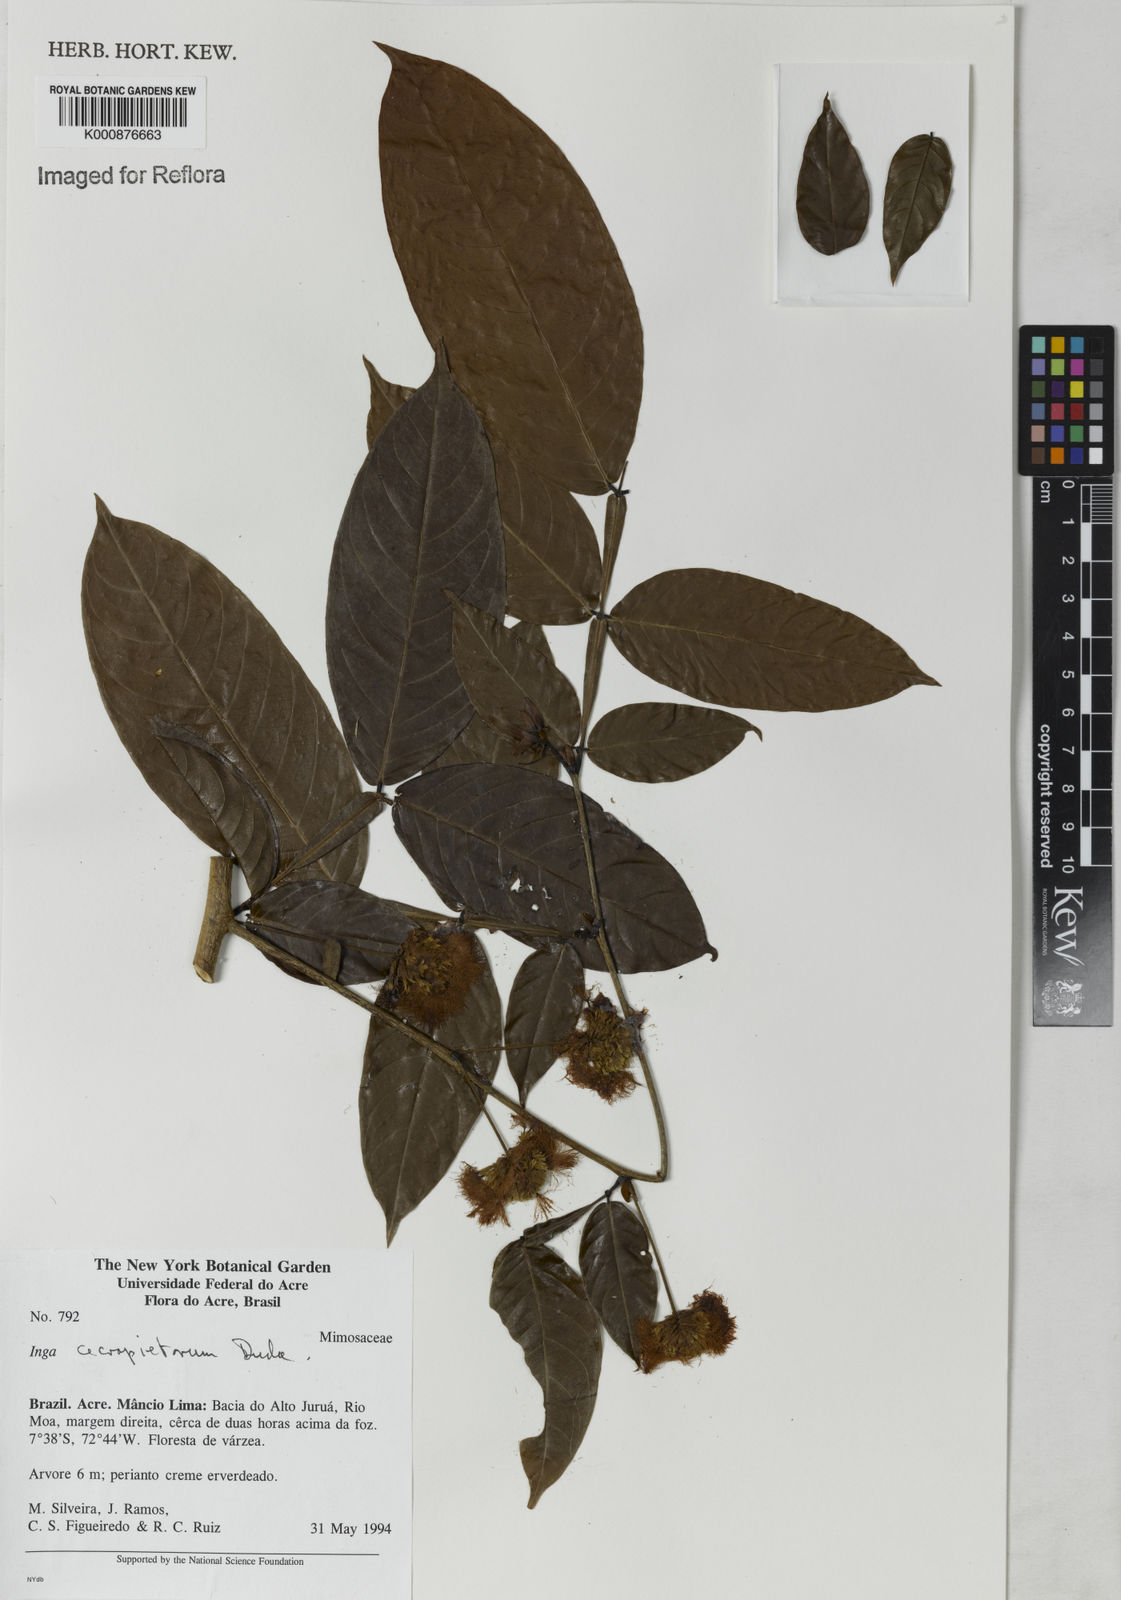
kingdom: Plantae
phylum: Tracheophyta
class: Magnoliopsida
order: Fabales
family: Fabaceae
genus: Inga
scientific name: Inga cecropietorum
